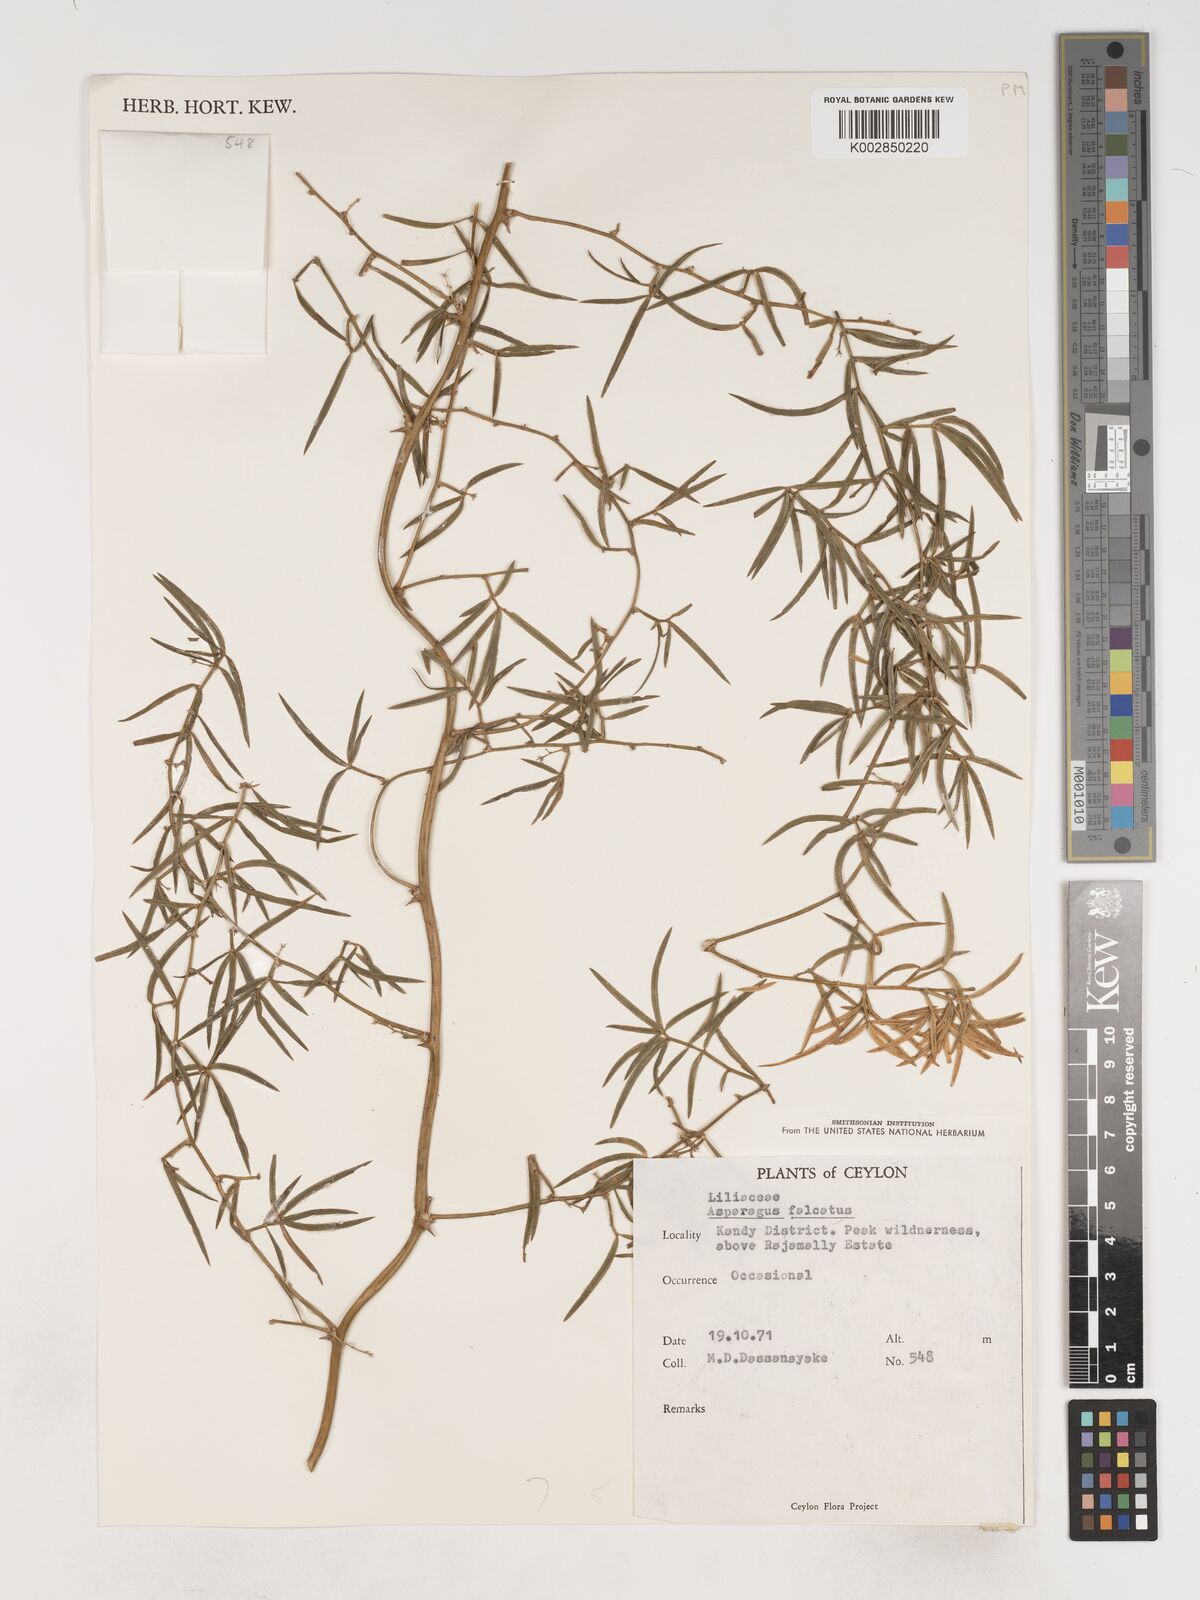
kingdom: Plantae
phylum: Tracheophyta
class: Liliopsida
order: Asparagales
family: Asparagaceae
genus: Asparagus
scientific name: Asparagus falcatus
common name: Asparagus
